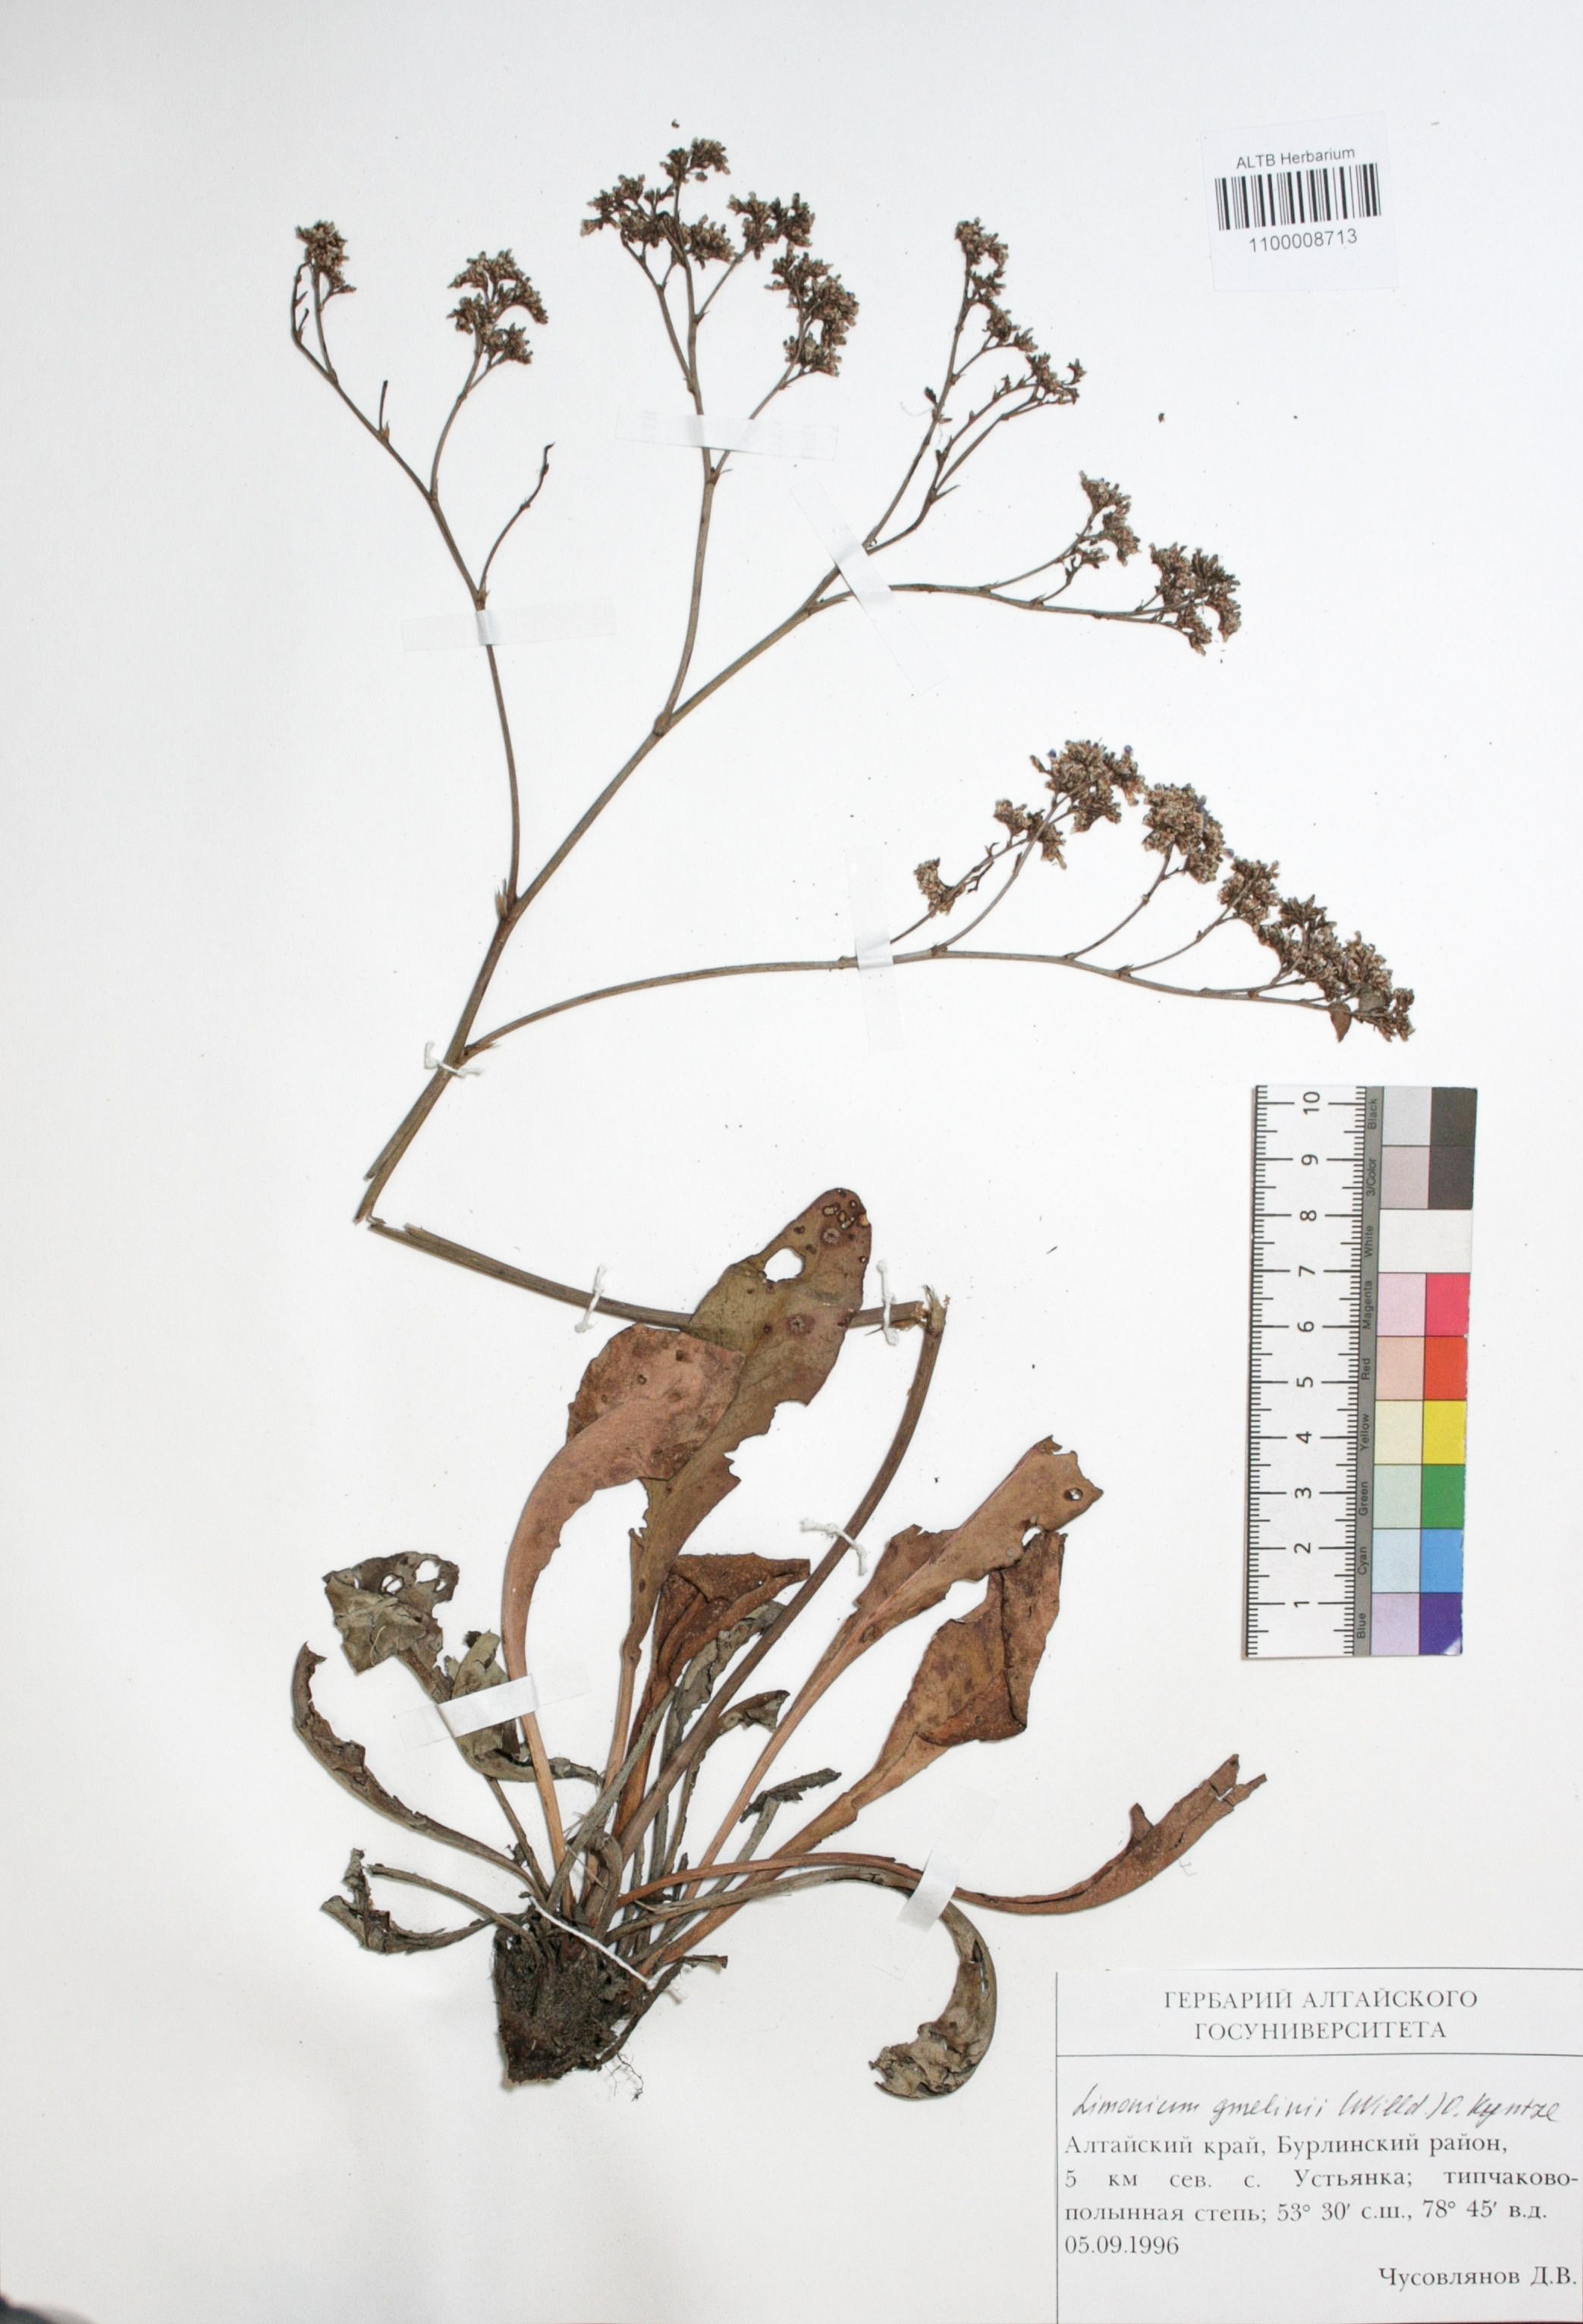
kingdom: Plantae
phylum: Tracheophyta
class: Magnoliopsida
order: Caryophyllales
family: Plumbaginaceae
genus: Limonium
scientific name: Limonium gmelini
